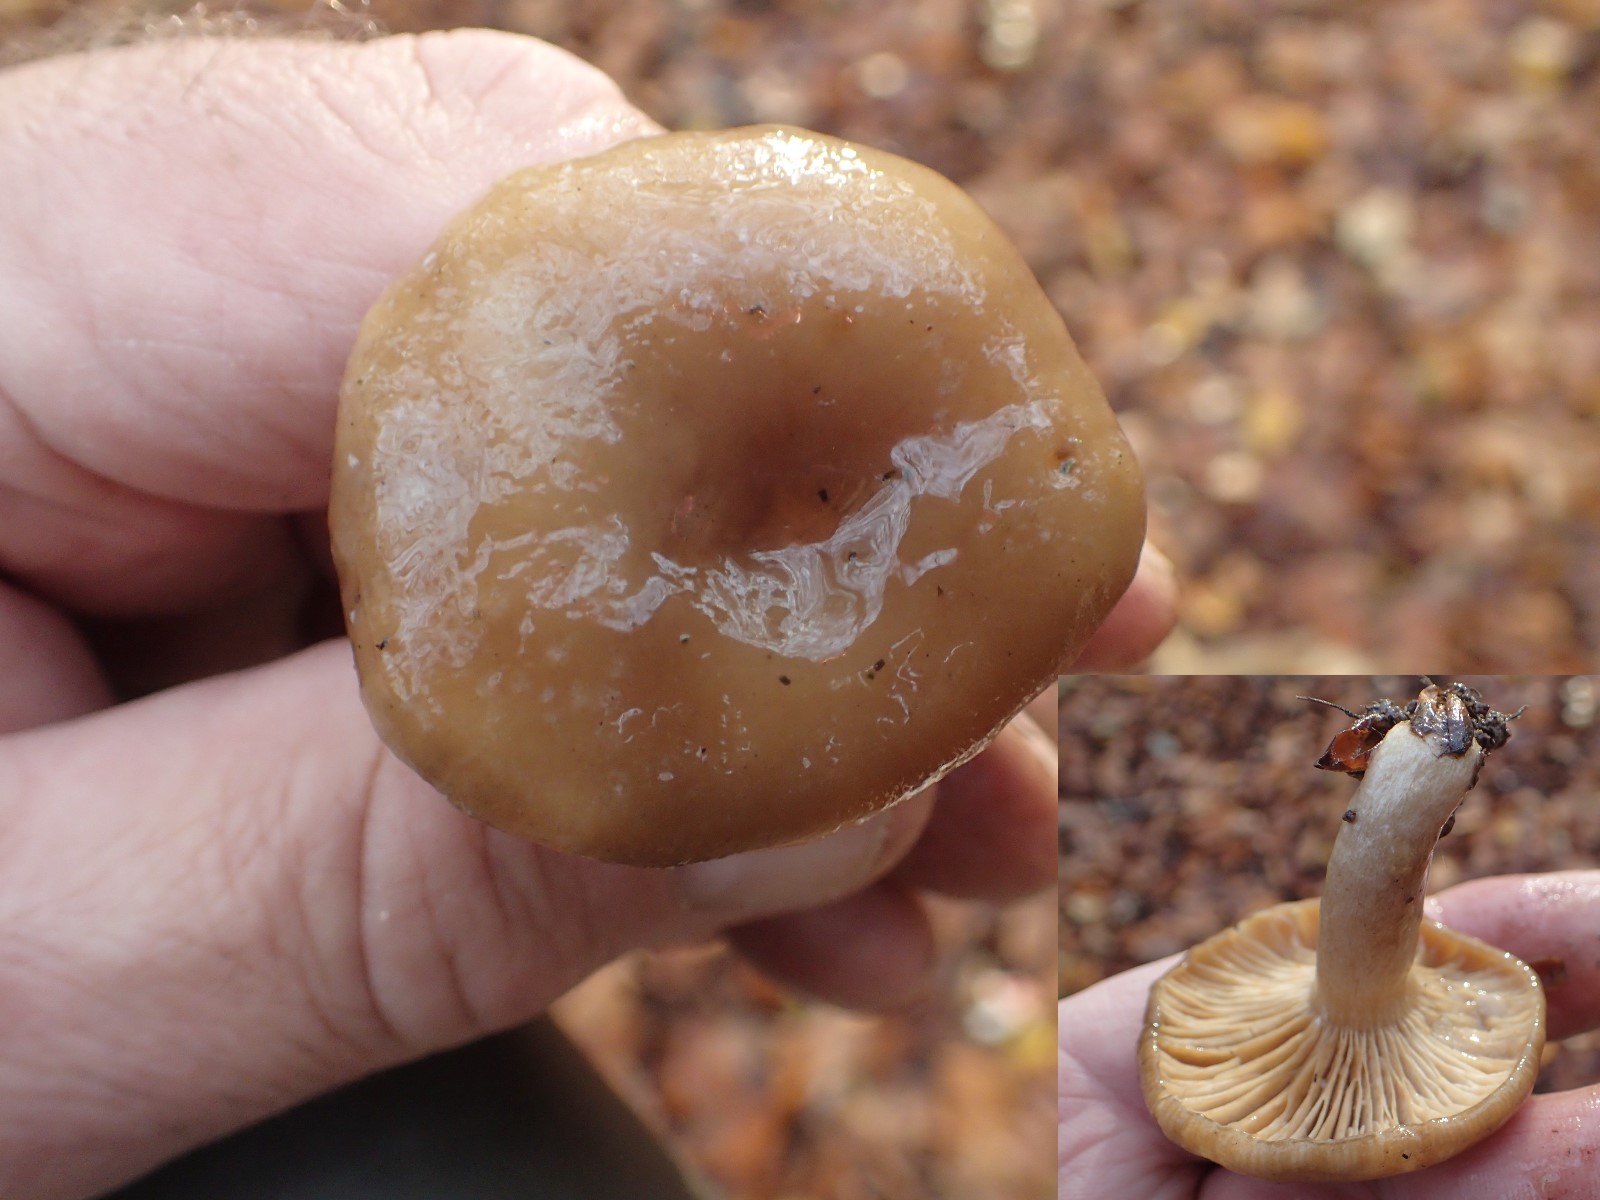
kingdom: Fungi
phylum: Basidiomycota
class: Agaricomycetes
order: Russulales
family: Russulaceae
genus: Lactarius
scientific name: Lactarius pallidus
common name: bleg mælkehat
